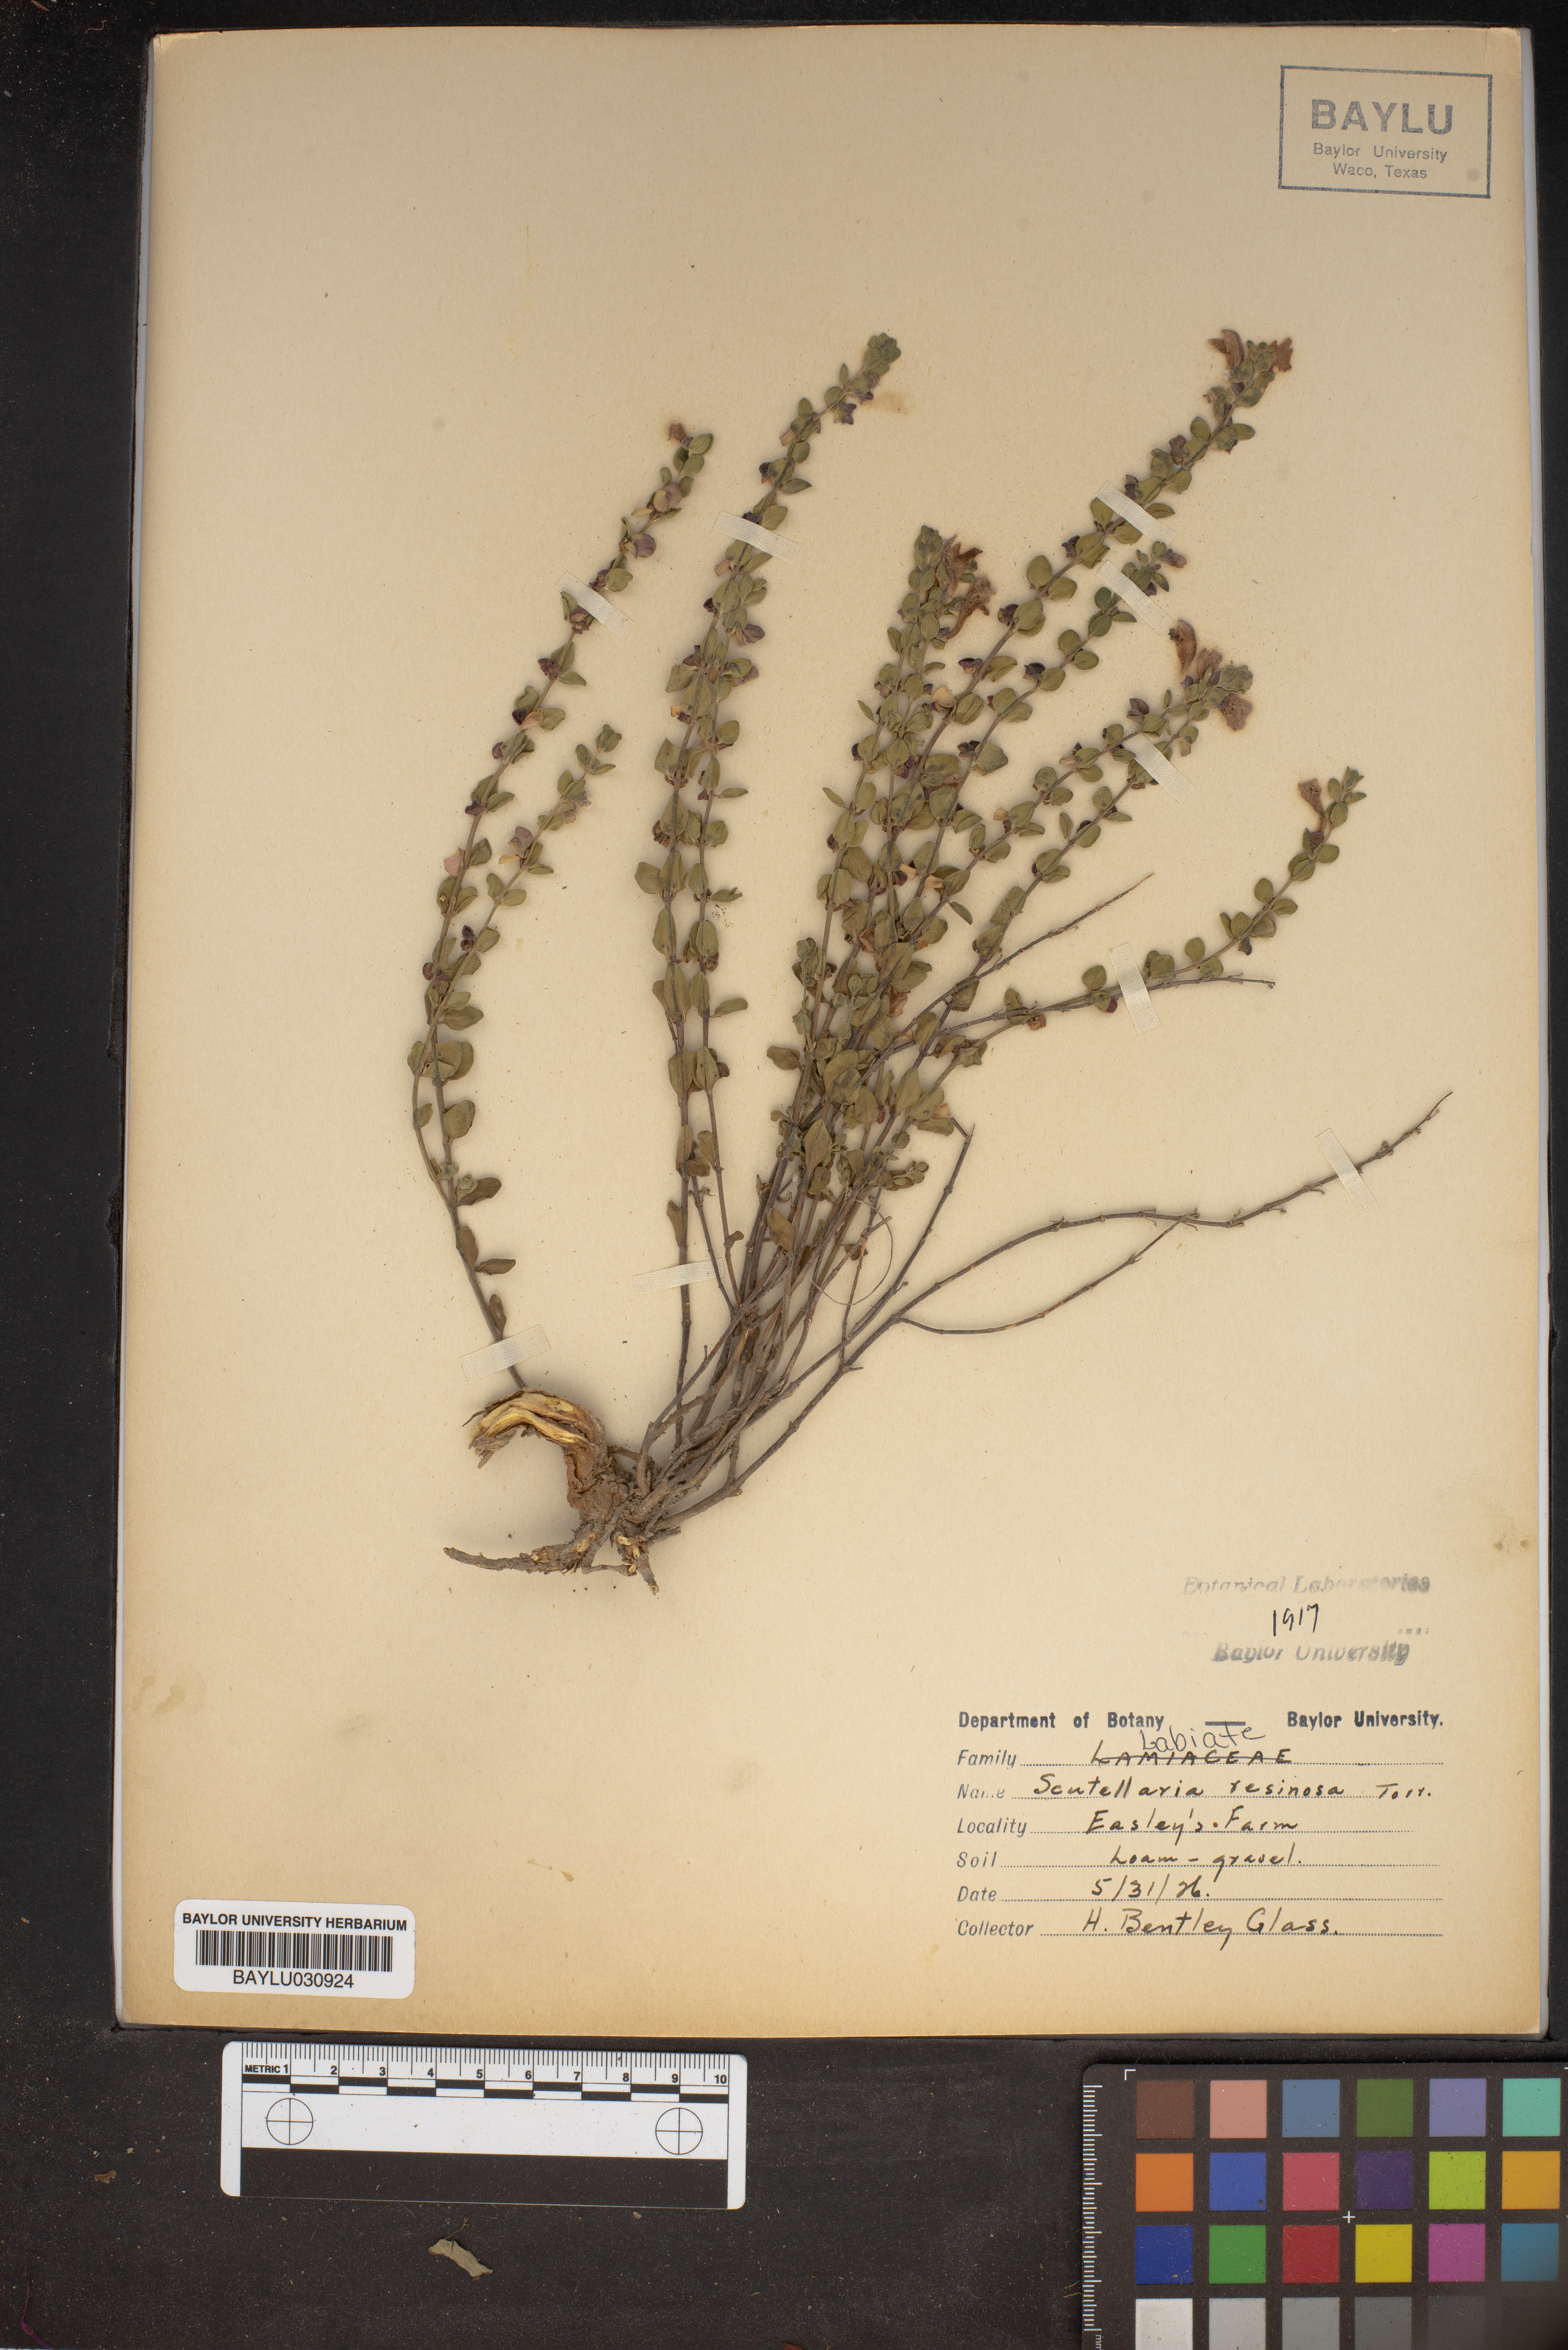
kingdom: Plantae
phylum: Tracheophyta
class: Magnoliopsida
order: Lamiales
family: Lamiaceae
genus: Scutellaria
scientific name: Scutellaria resinosa
